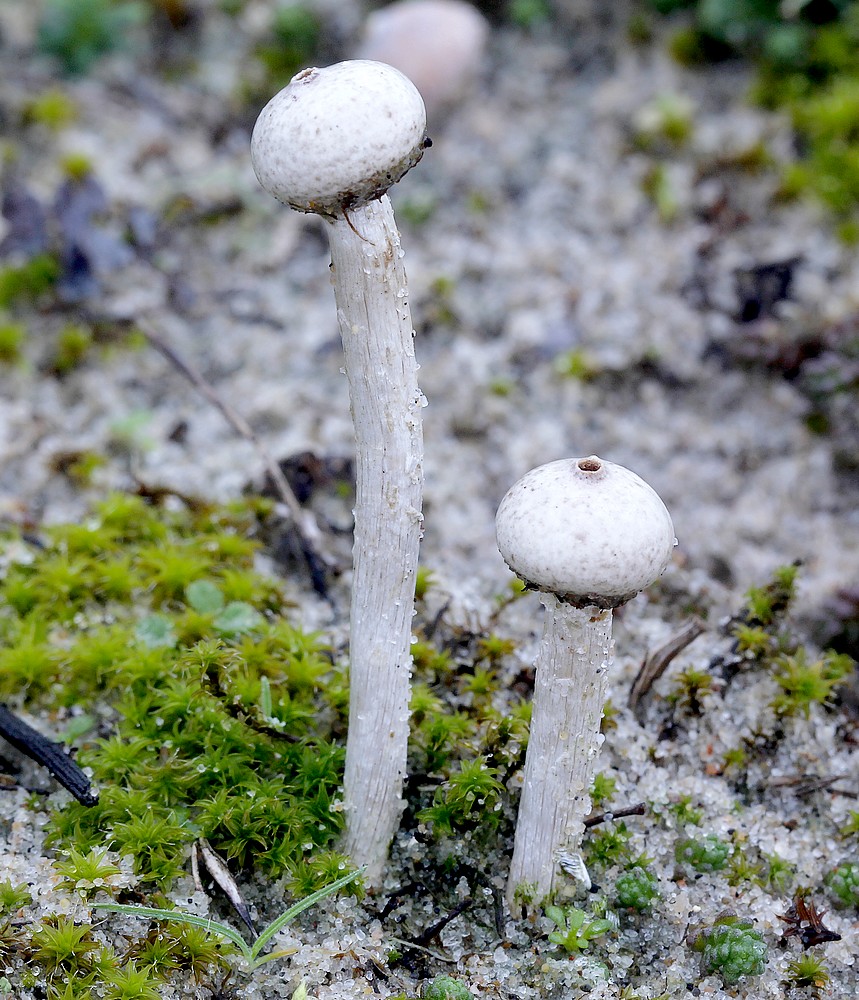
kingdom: Fungi
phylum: Basidiomycota
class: Agaricomycetes
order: Agaricales
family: Agaricaceae
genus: Tulostoma
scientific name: Tulostoma kotlabae
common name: gråhvid stilkbovist
